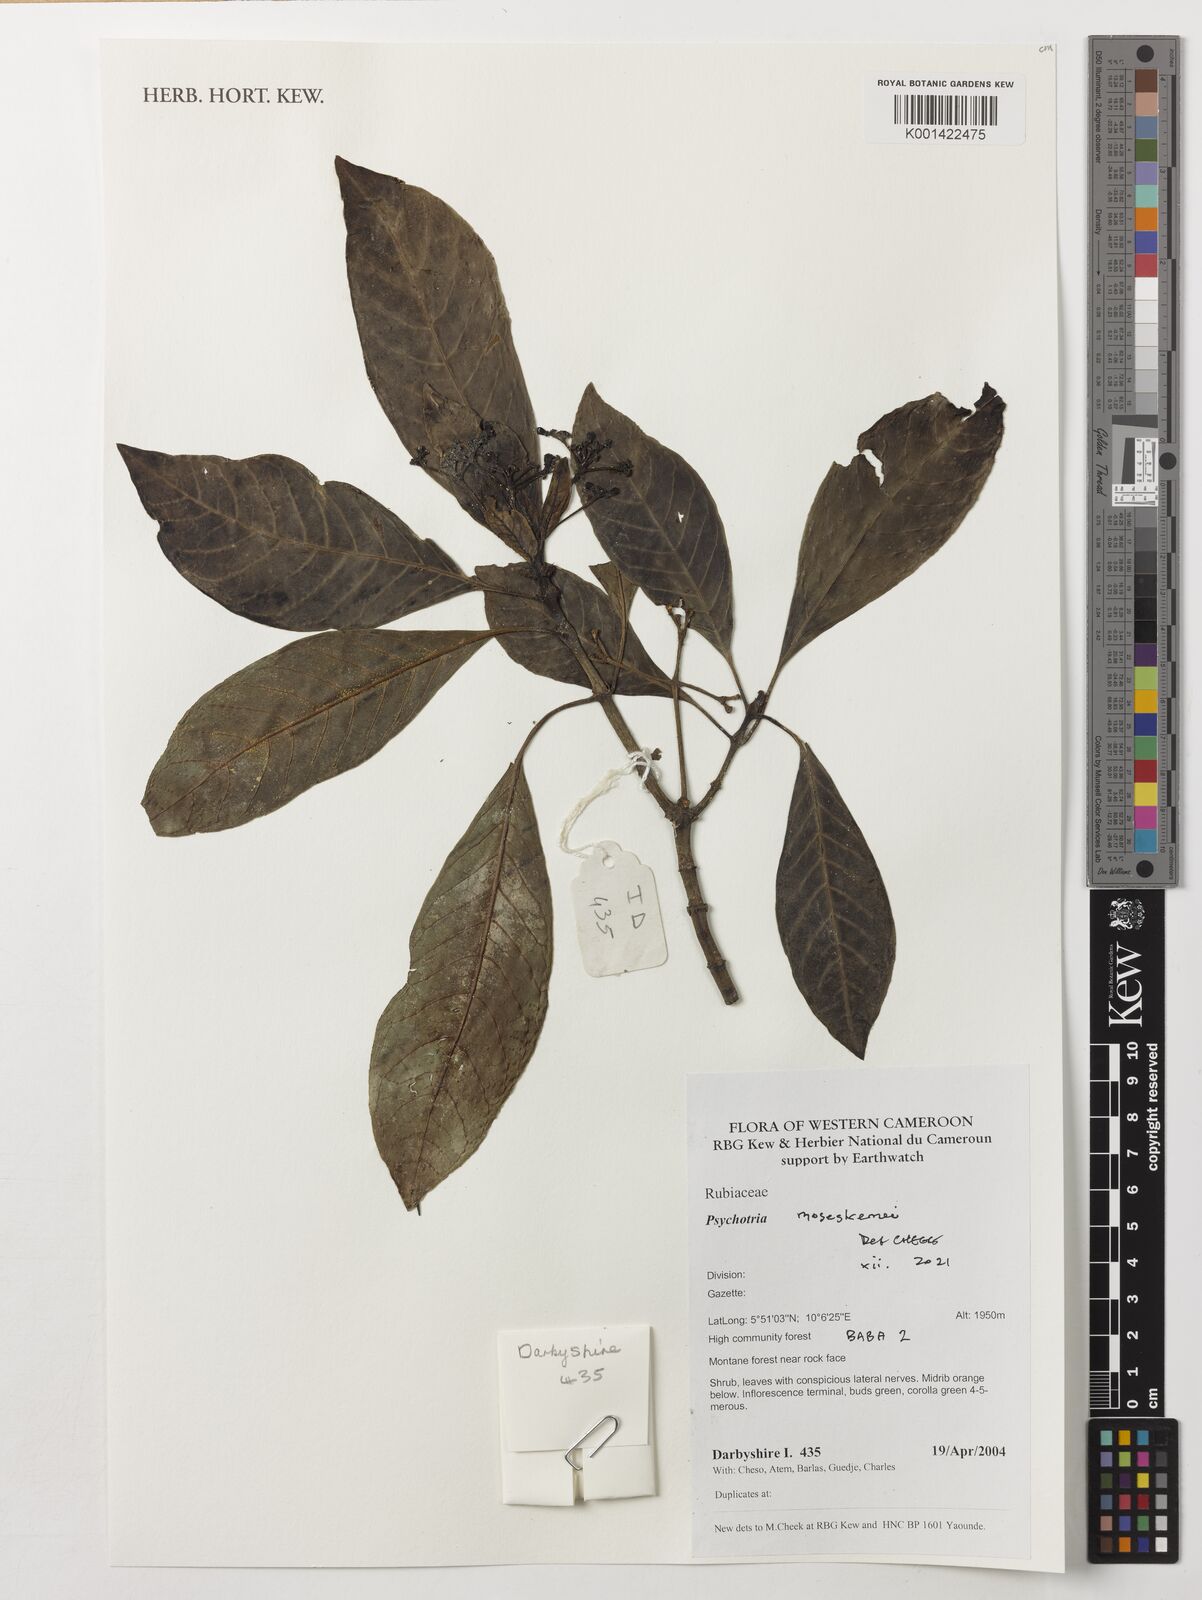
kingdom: Plantae
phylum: Tracheophyta
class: Magnoliopsida
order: Gentianales
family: Rubiaceae
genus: Psychotria
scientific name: Psychotria chalconeura
